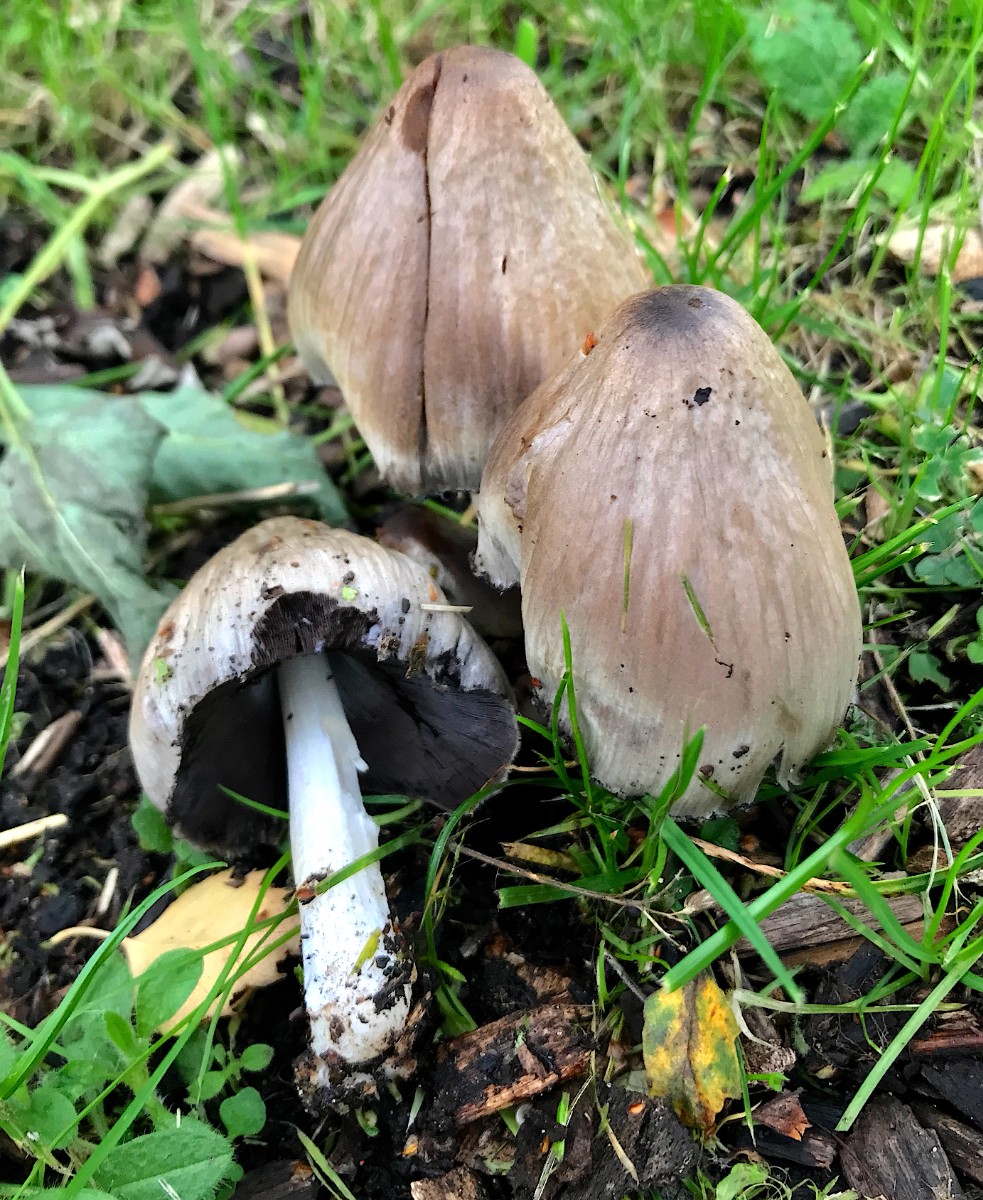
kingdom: Fungi
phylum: Basidiomycota
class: Agaricomycetes
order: Agaricales
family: Psathyrellaceae
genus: Coprinopsis
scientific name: Coprinopsis atramentaria
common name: almindelig blækhat
